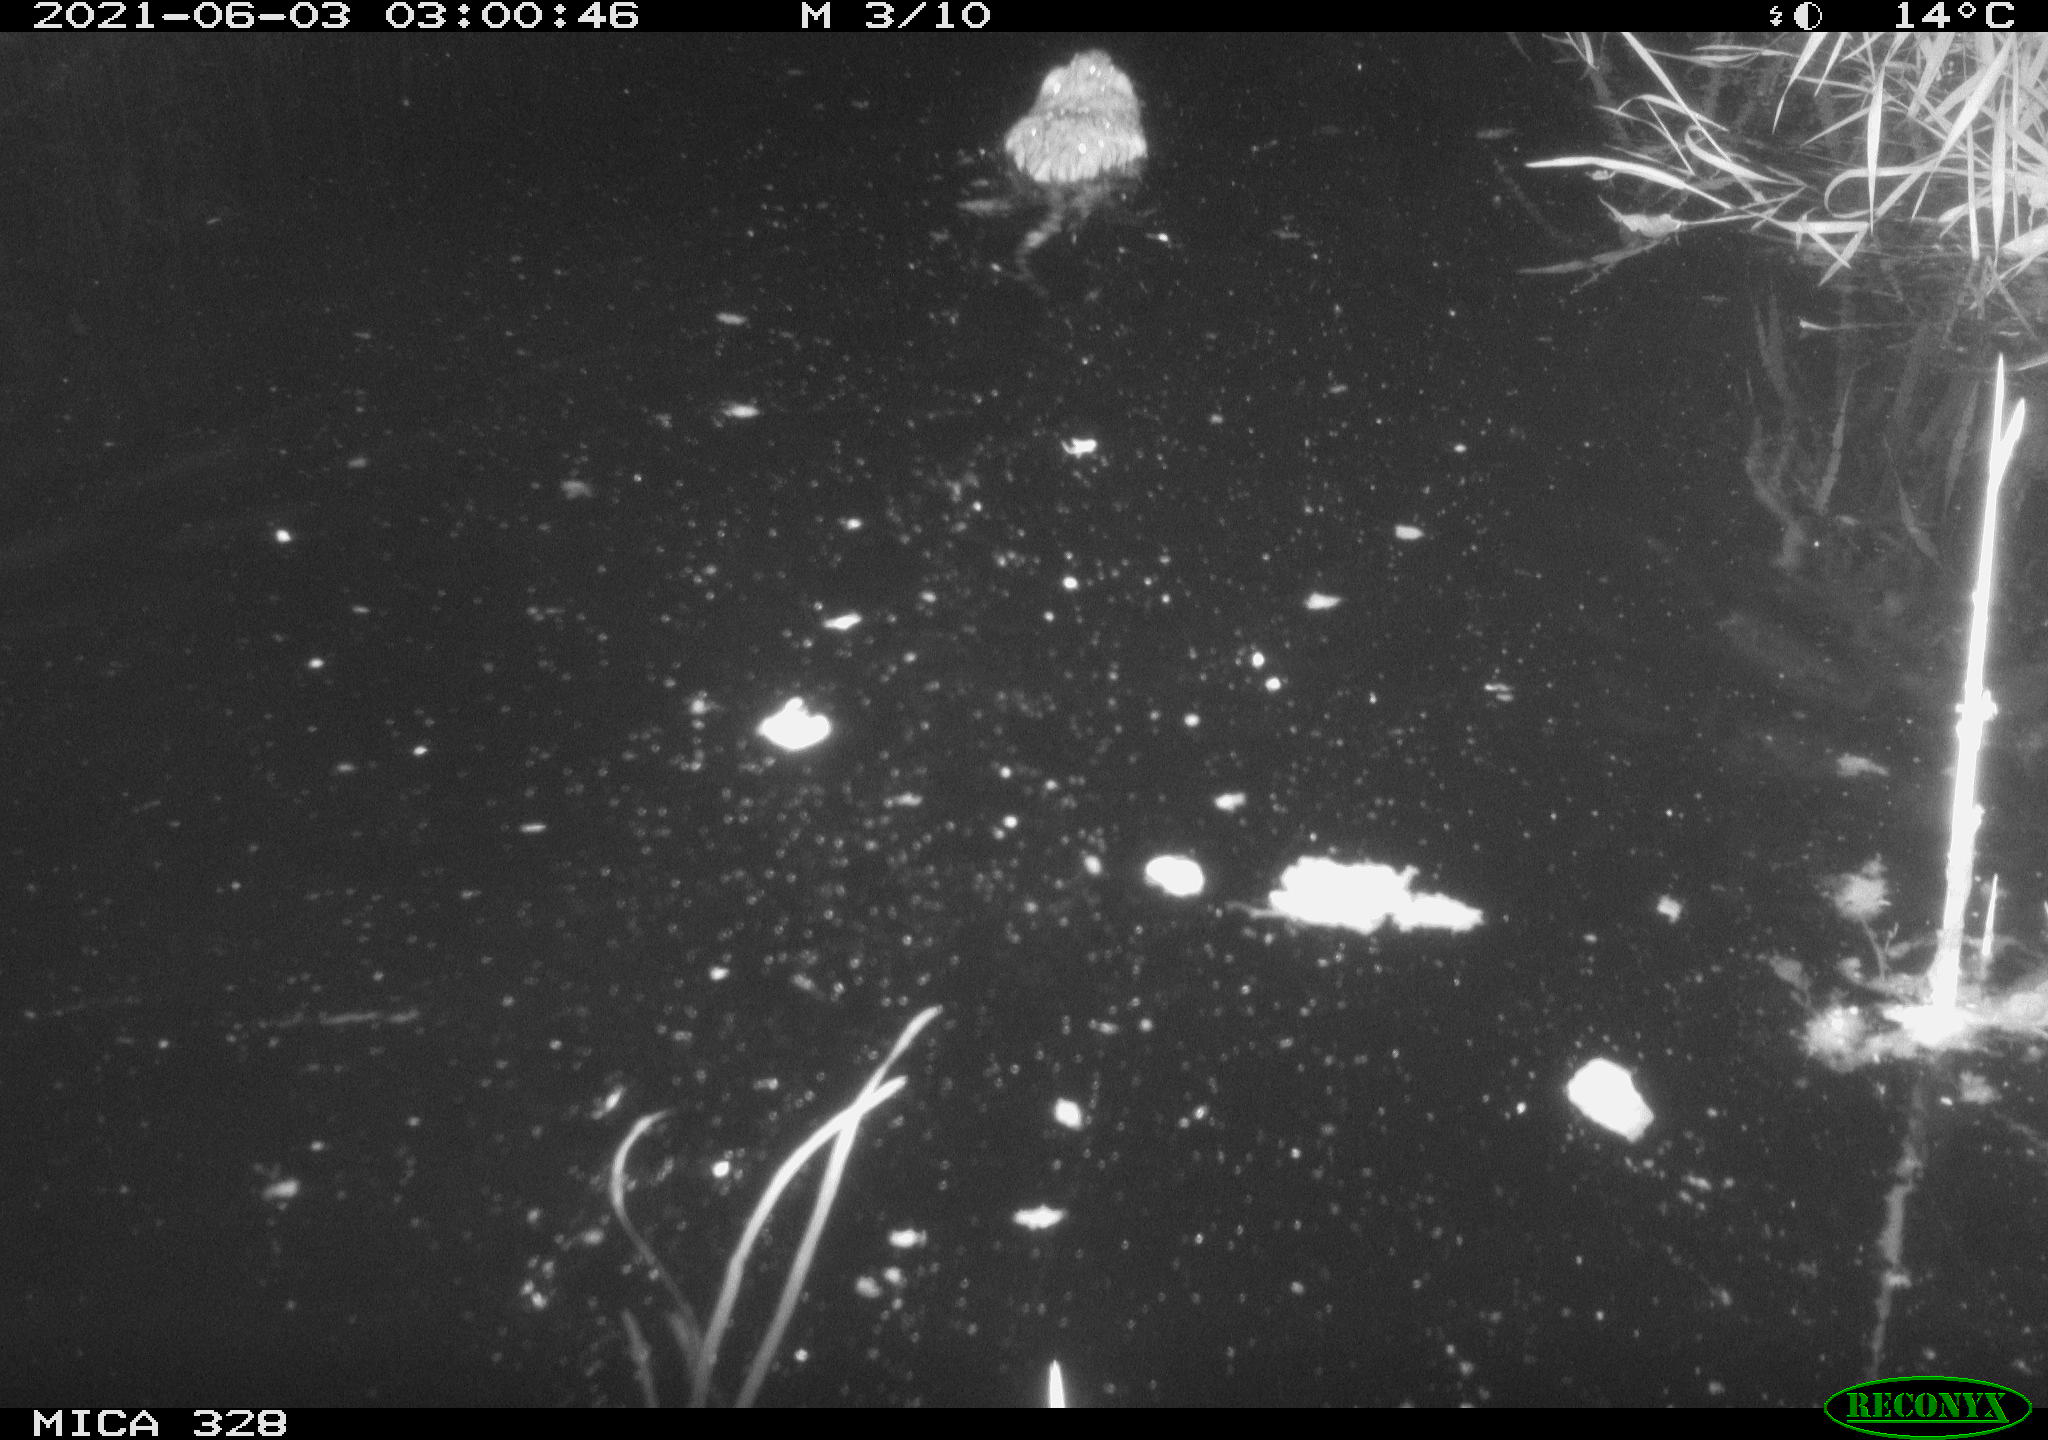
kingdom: Animalia
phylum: Chordata
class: Mammalia
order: Rodentia
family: Cricetidae
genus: Ondatra
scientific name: Ondatra zibethicus
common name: Muskrat
